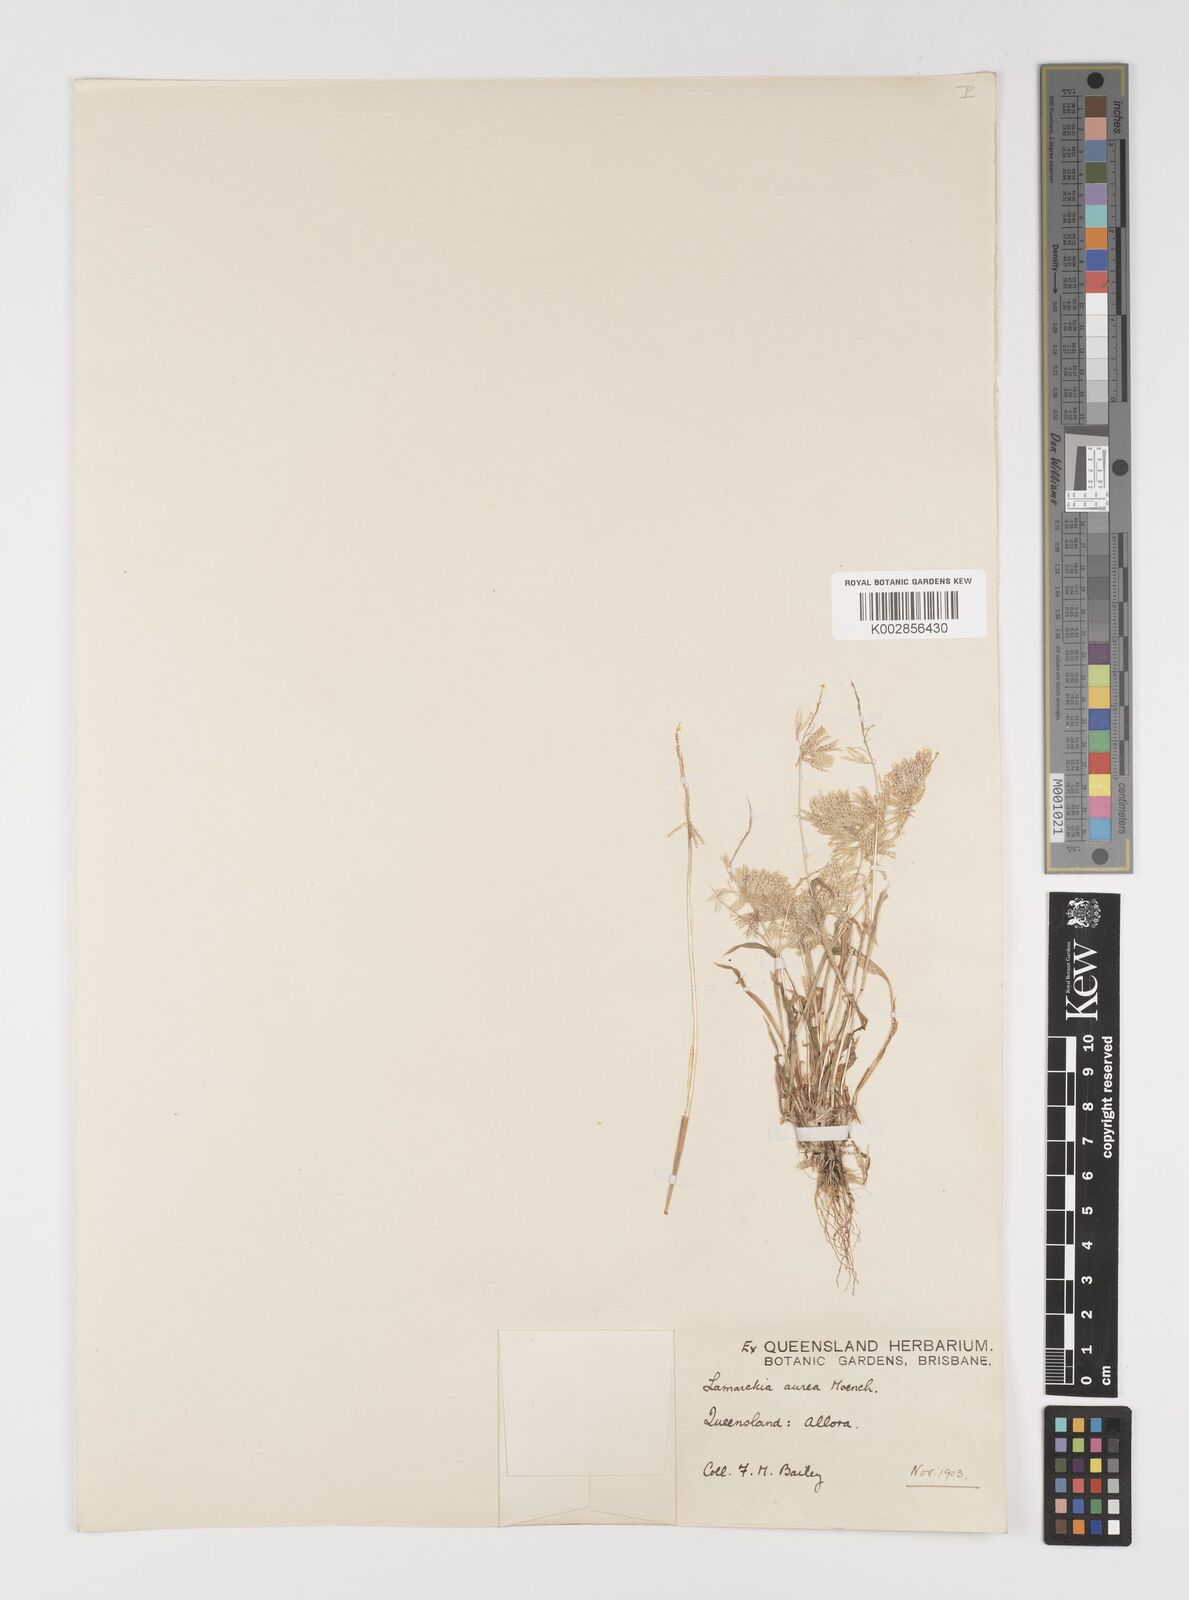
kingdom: Plantae
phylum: Tracheophyta
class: Liliopsida
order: Poales
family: Poaceae
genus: Lamarckia
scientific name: Lamarckia aurea
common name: Golden dog's-tail
